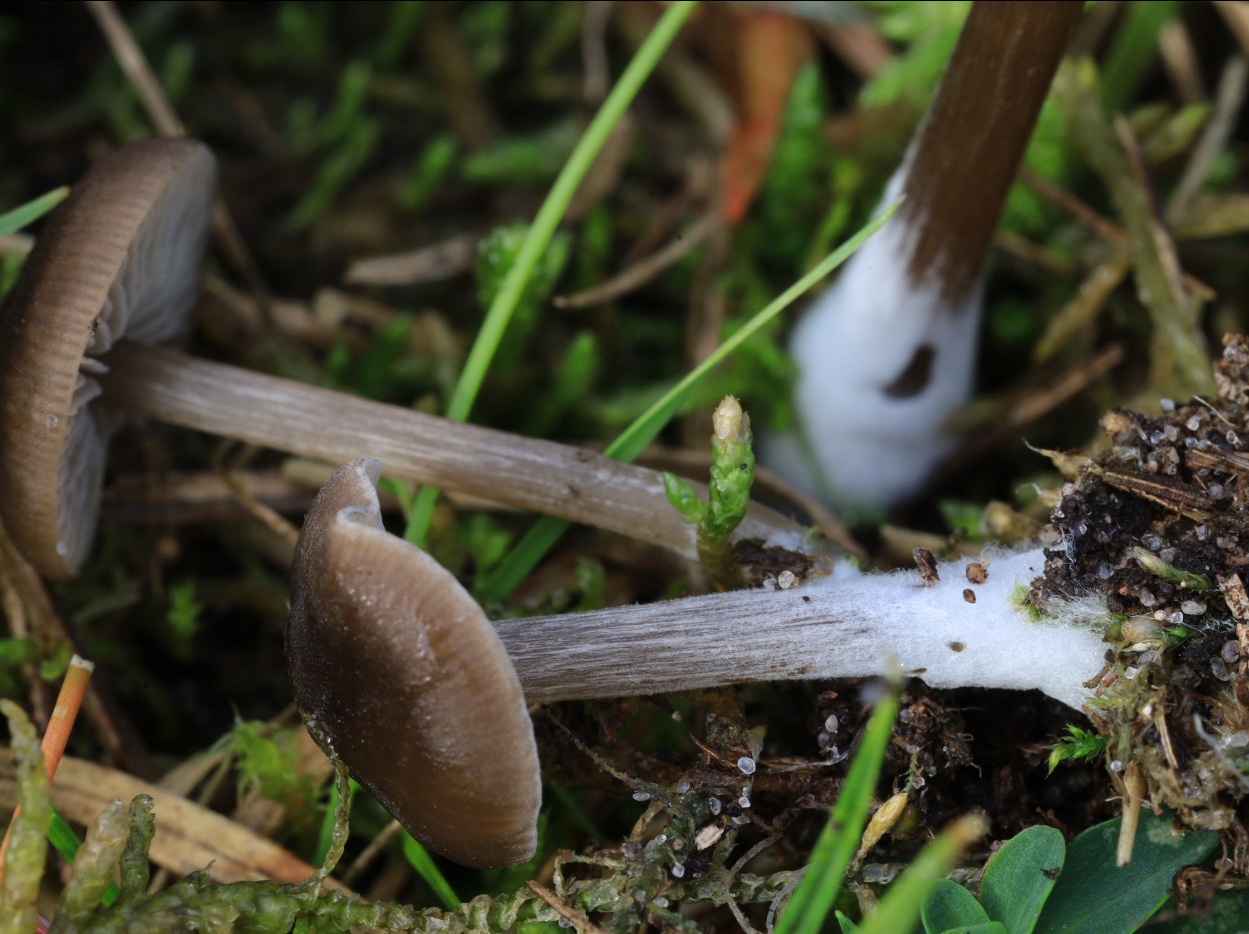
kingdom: Fungi
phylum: Basidiomycota
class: Agaricomycetes
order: Agaricales
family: Entolomataceae
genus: Entoloma
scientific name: Entoloma
